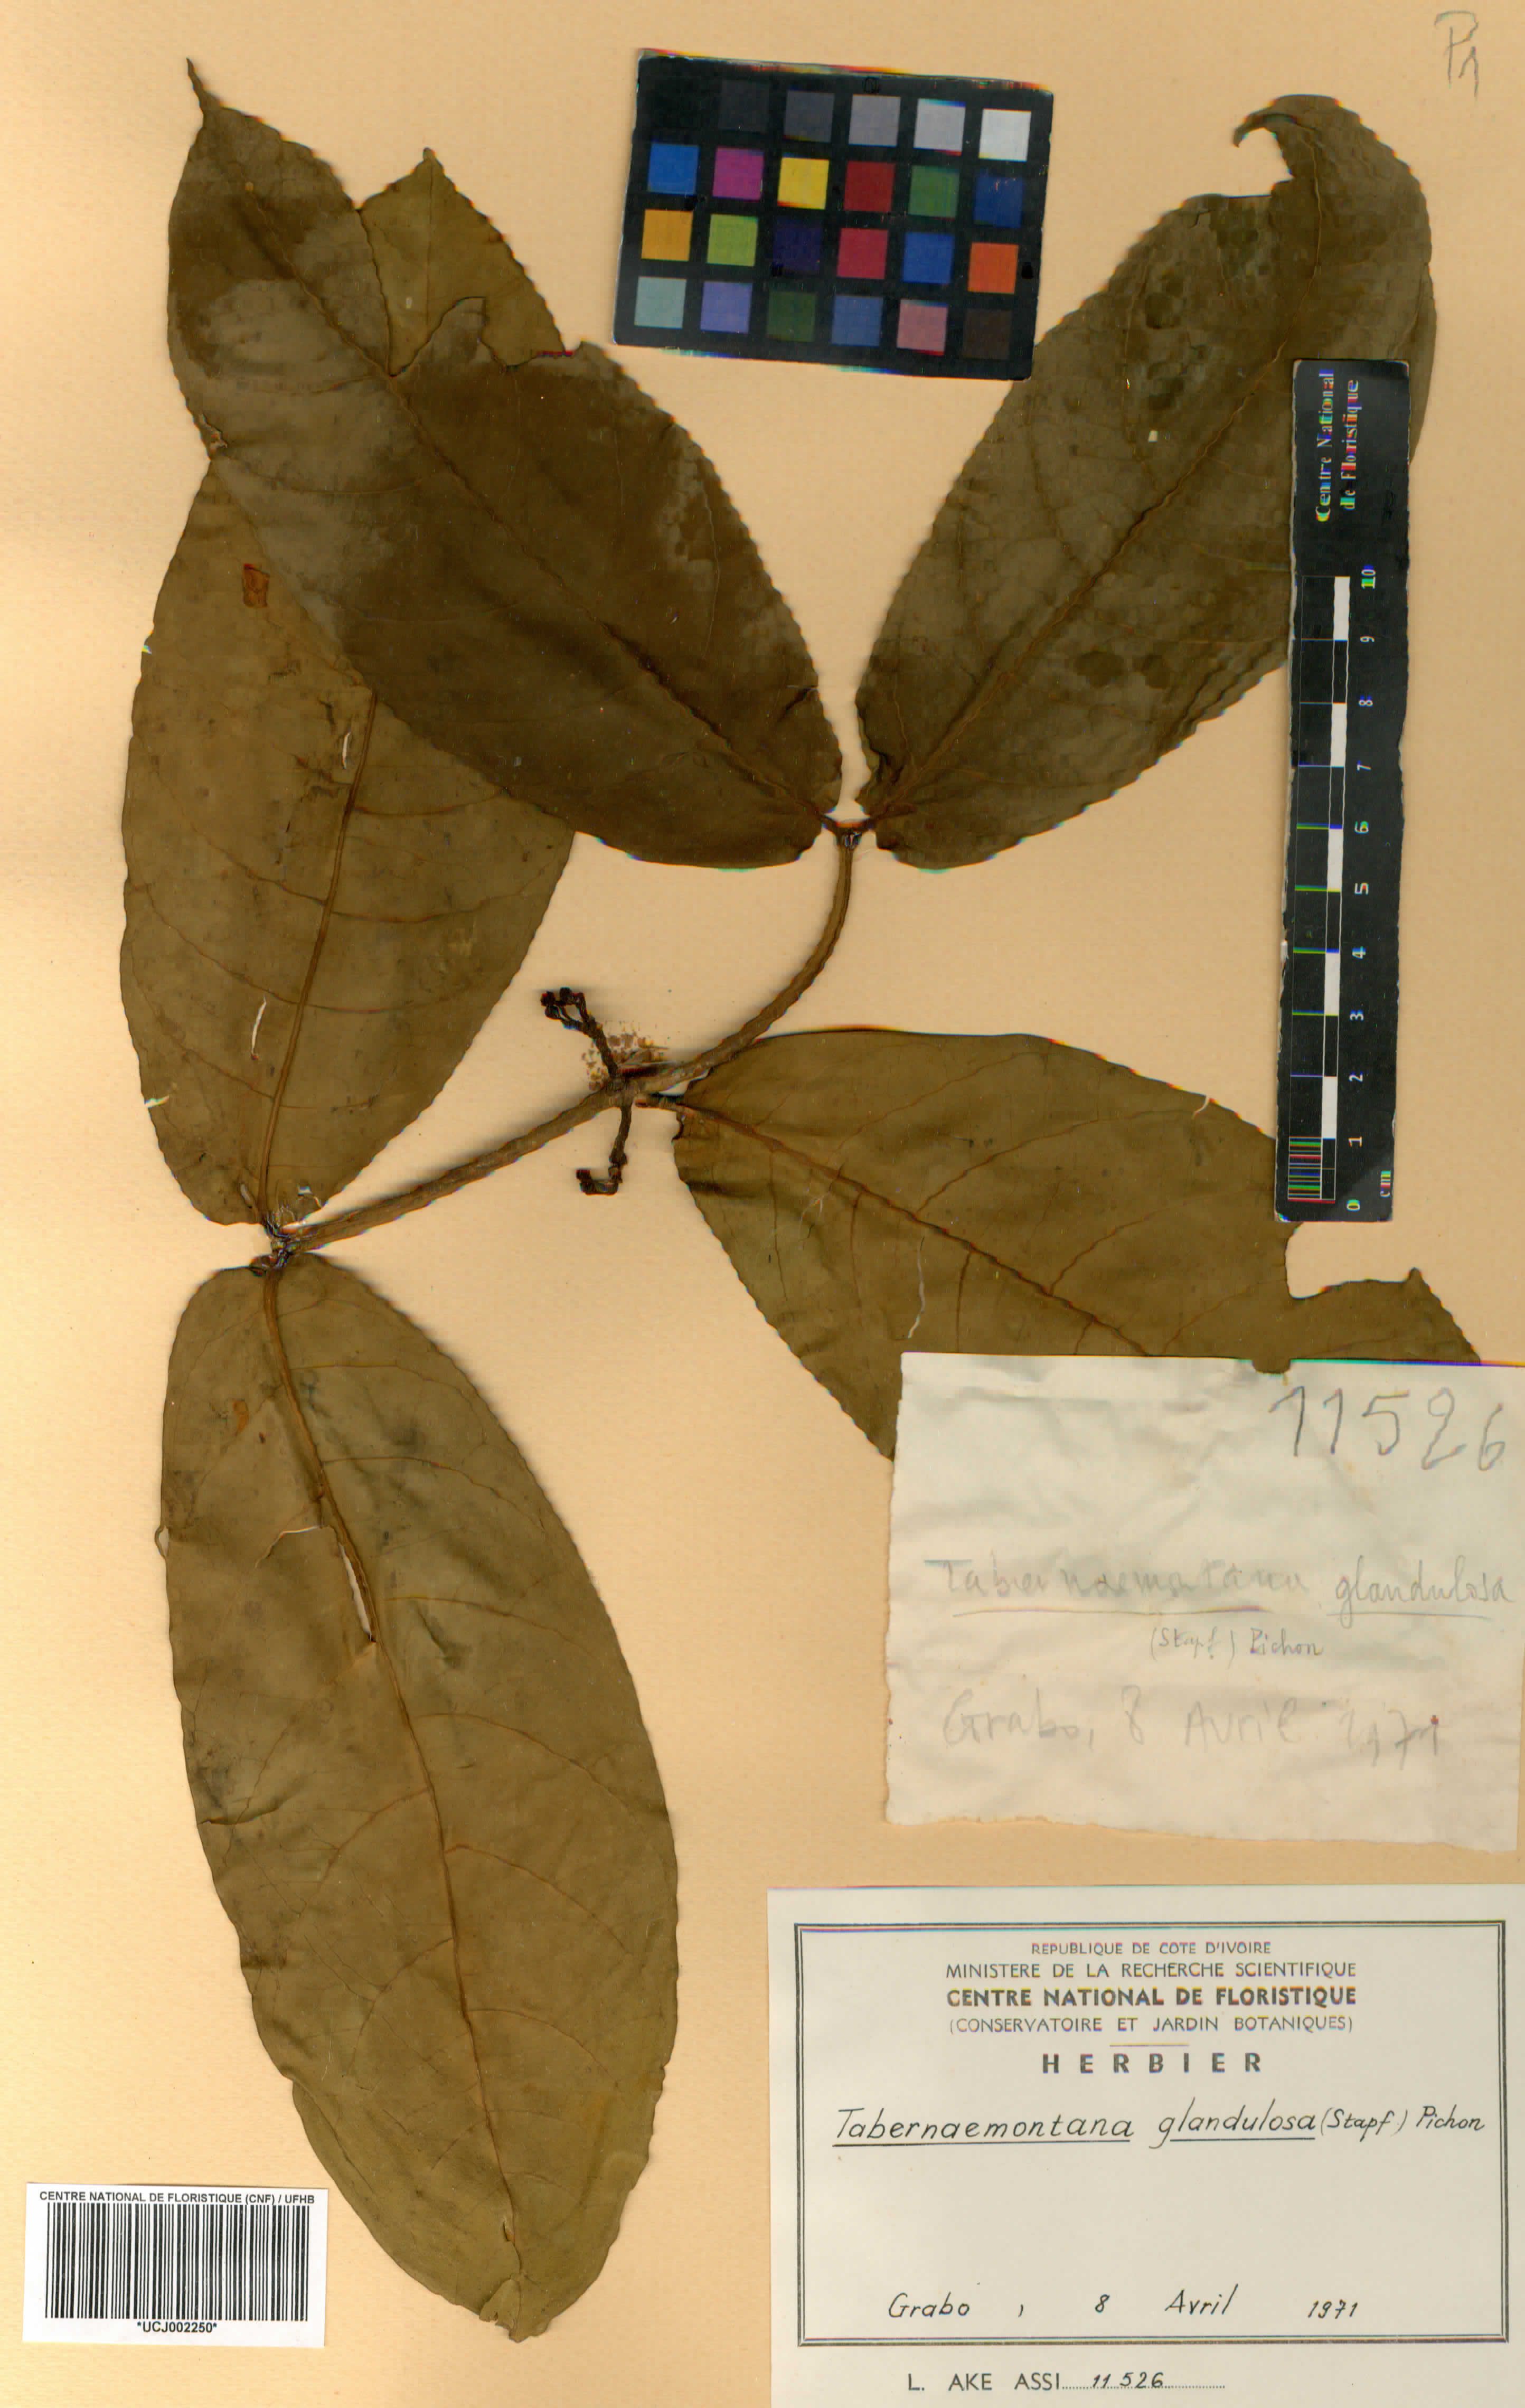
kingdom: Plantae
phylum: Tracheophyta
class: Magnoliopsida
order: Gentianales
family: Apocynaceae
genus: Tabernaemontana
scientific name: Tabernaemontana glandulosa
